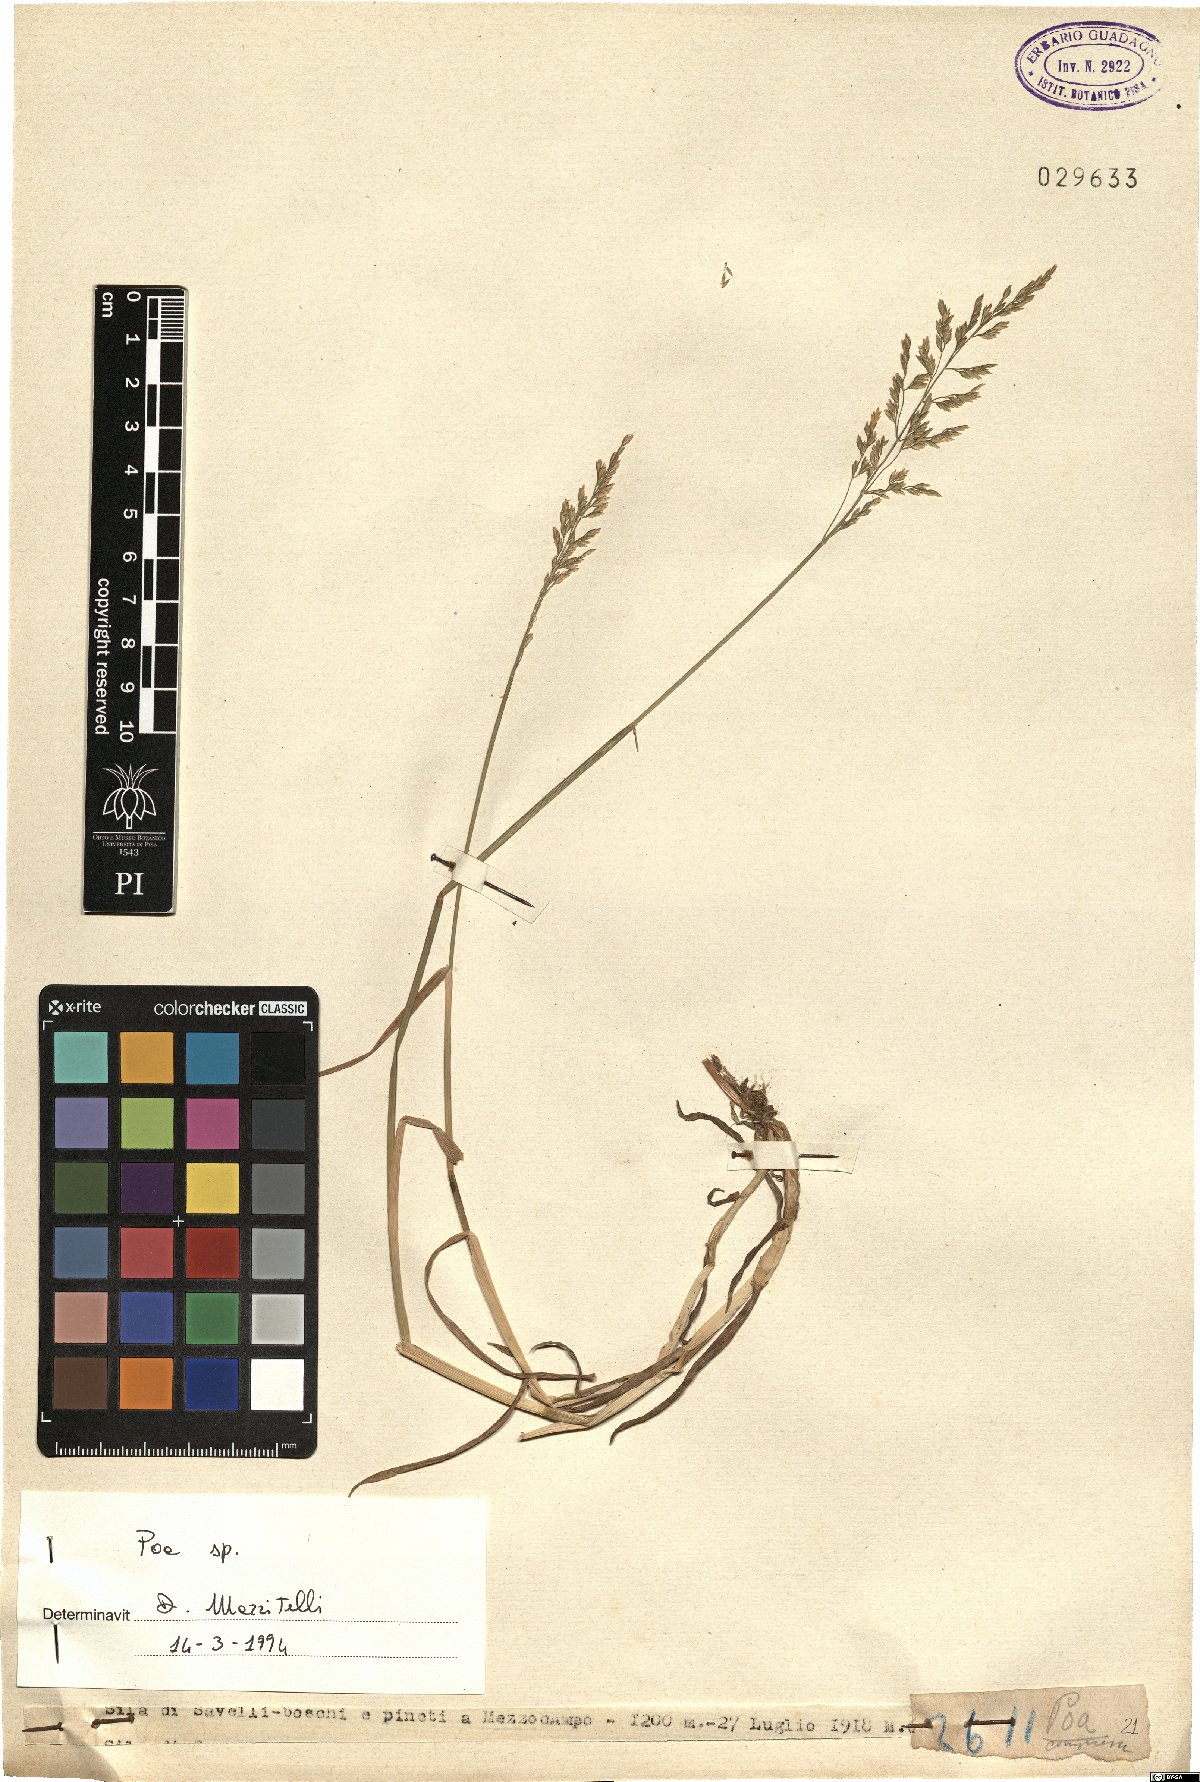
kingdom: Plantae
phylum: Tracheophyta
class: Liliopsida
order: Poales
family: Poaceae
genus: Poa
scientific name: Poa
